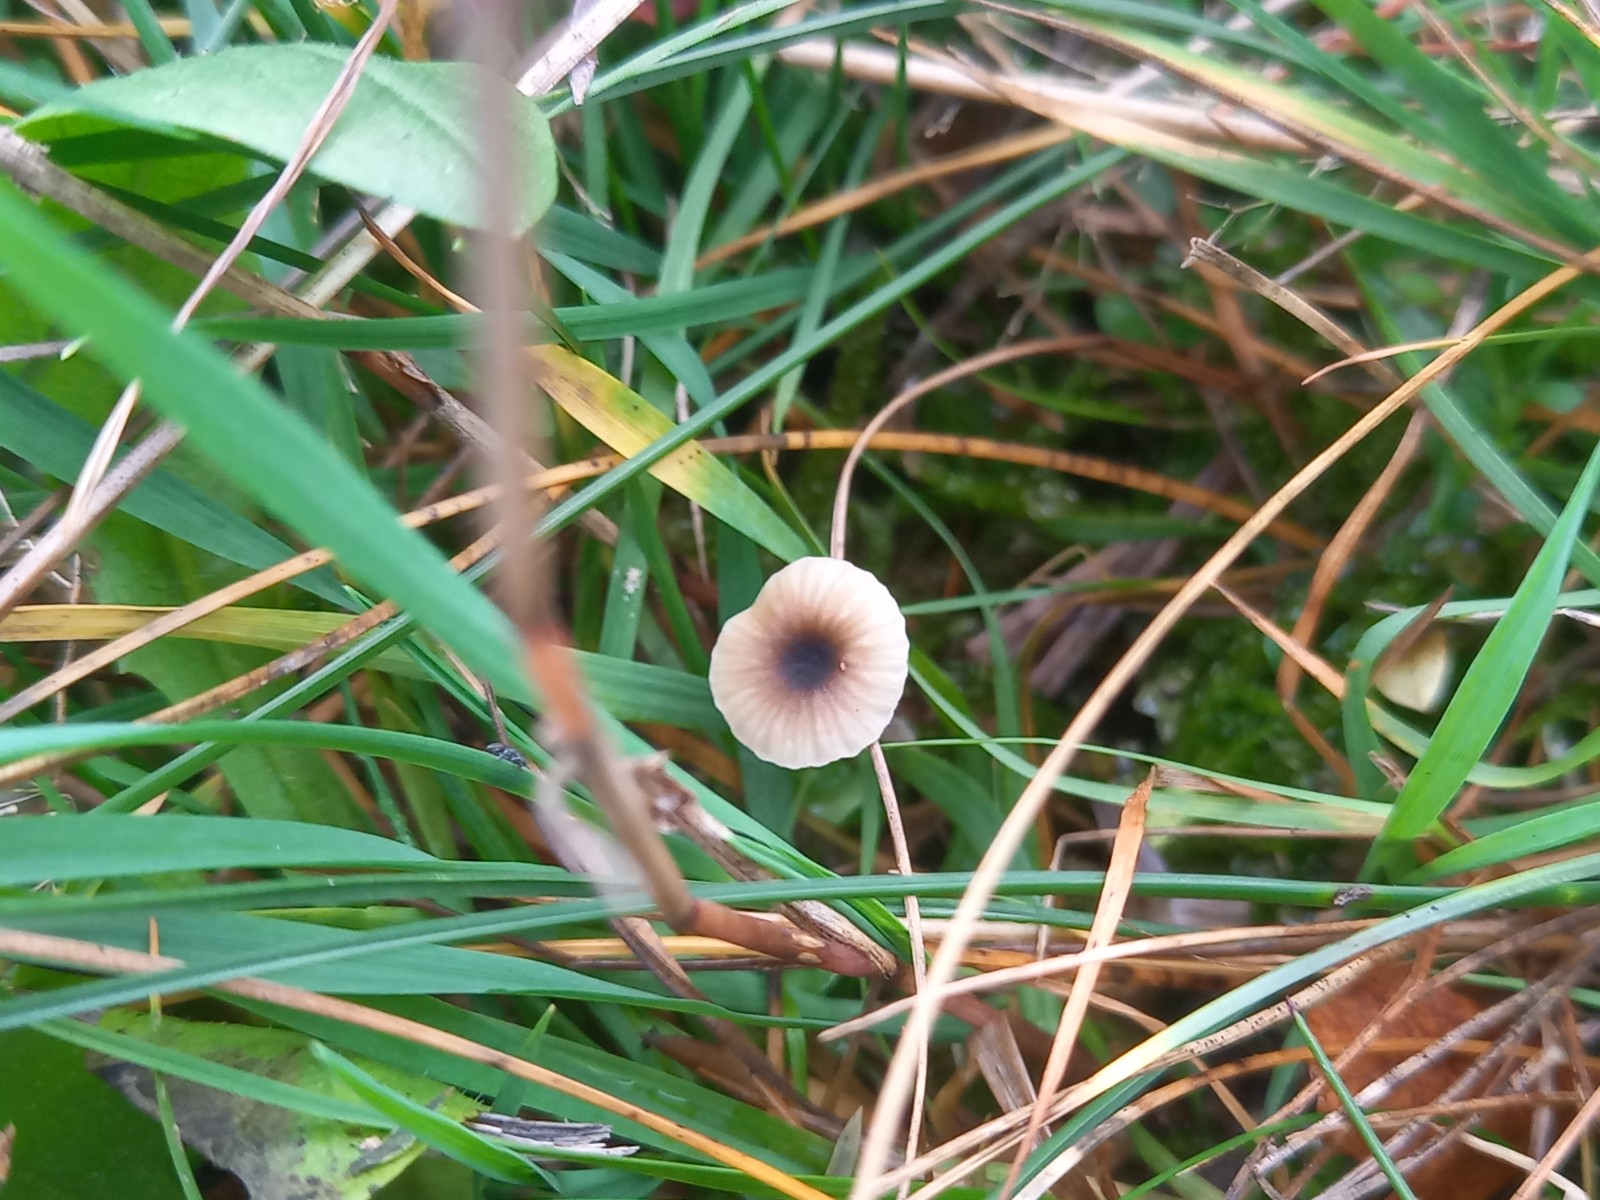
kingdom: Fungi
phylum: Basidiomycota
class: Agaricomycetes
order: Hymenochaetales
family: Rickenellaceae
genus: Rickenella
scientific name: Rickenella swartzii
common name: finstokket mosnavlehat
